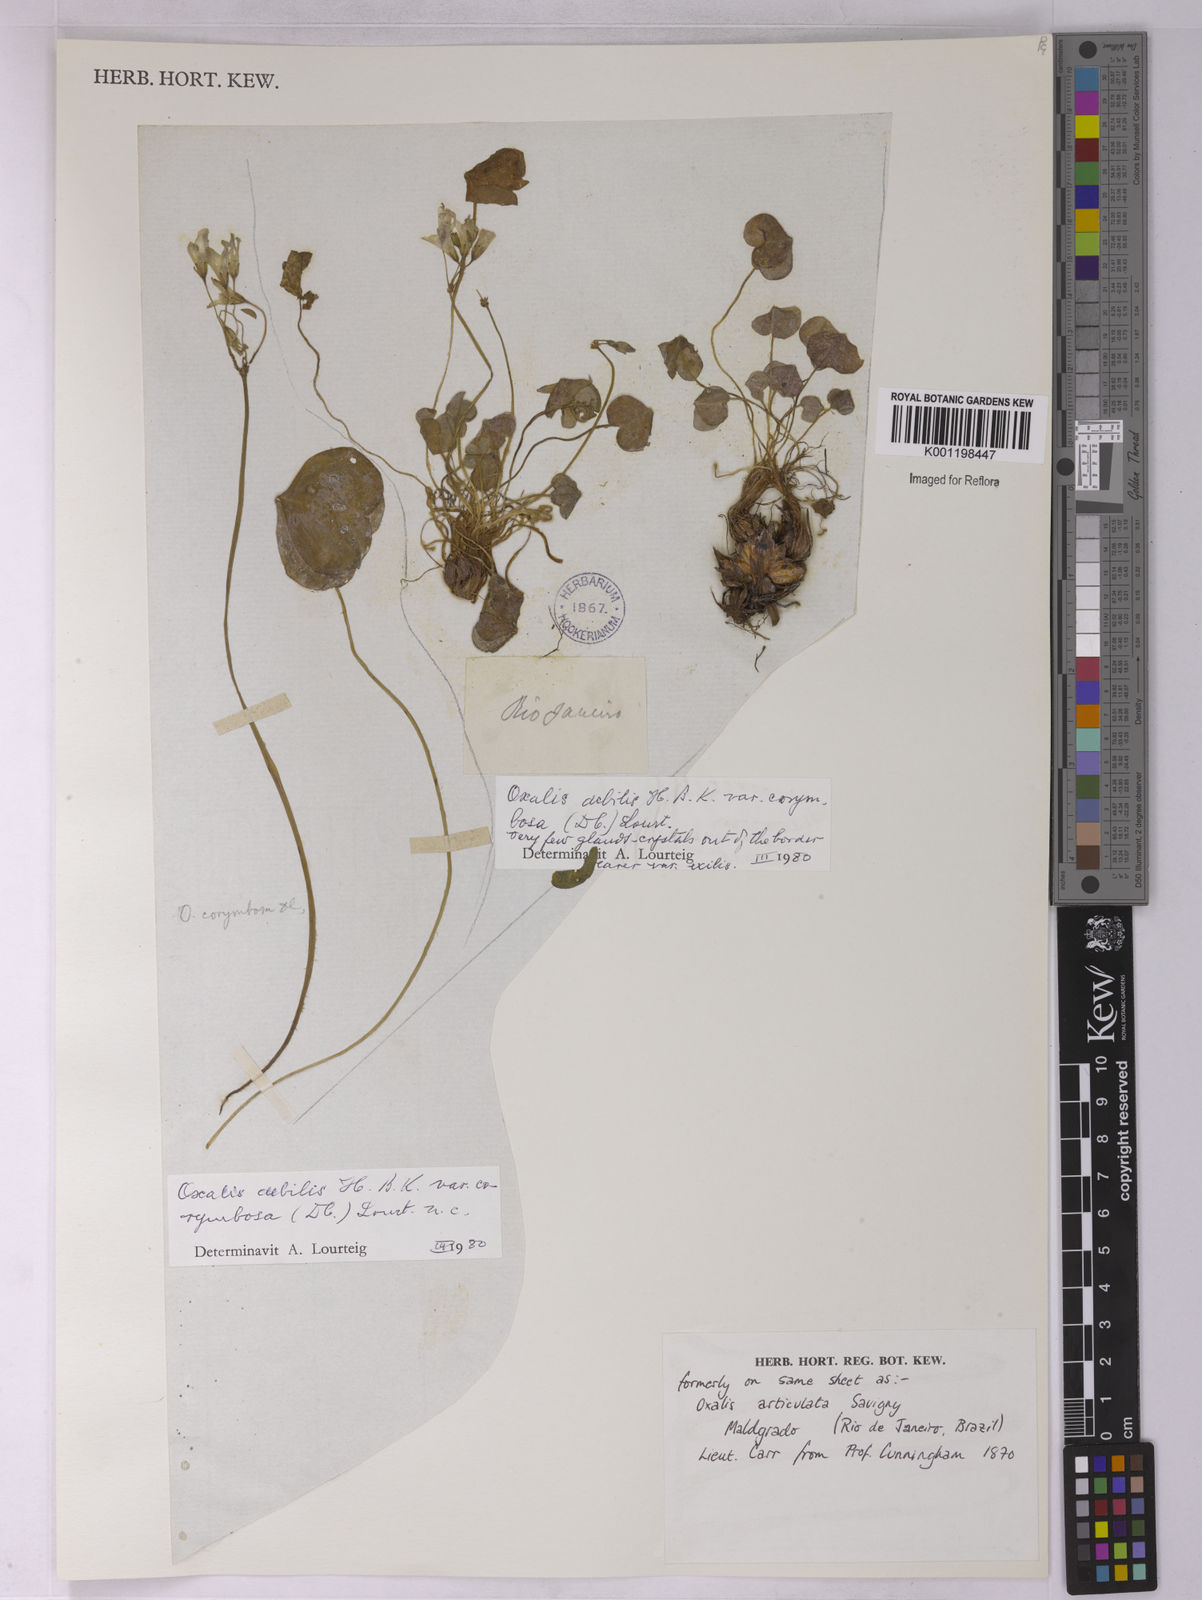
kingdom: Plantae
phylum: Tracheophyta
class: Magnoliopsida
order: Oxalidales
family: Oxalidaceae
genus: Oxalis
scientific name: Oxalis debilis
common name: Large-flowered pink-sorrel
